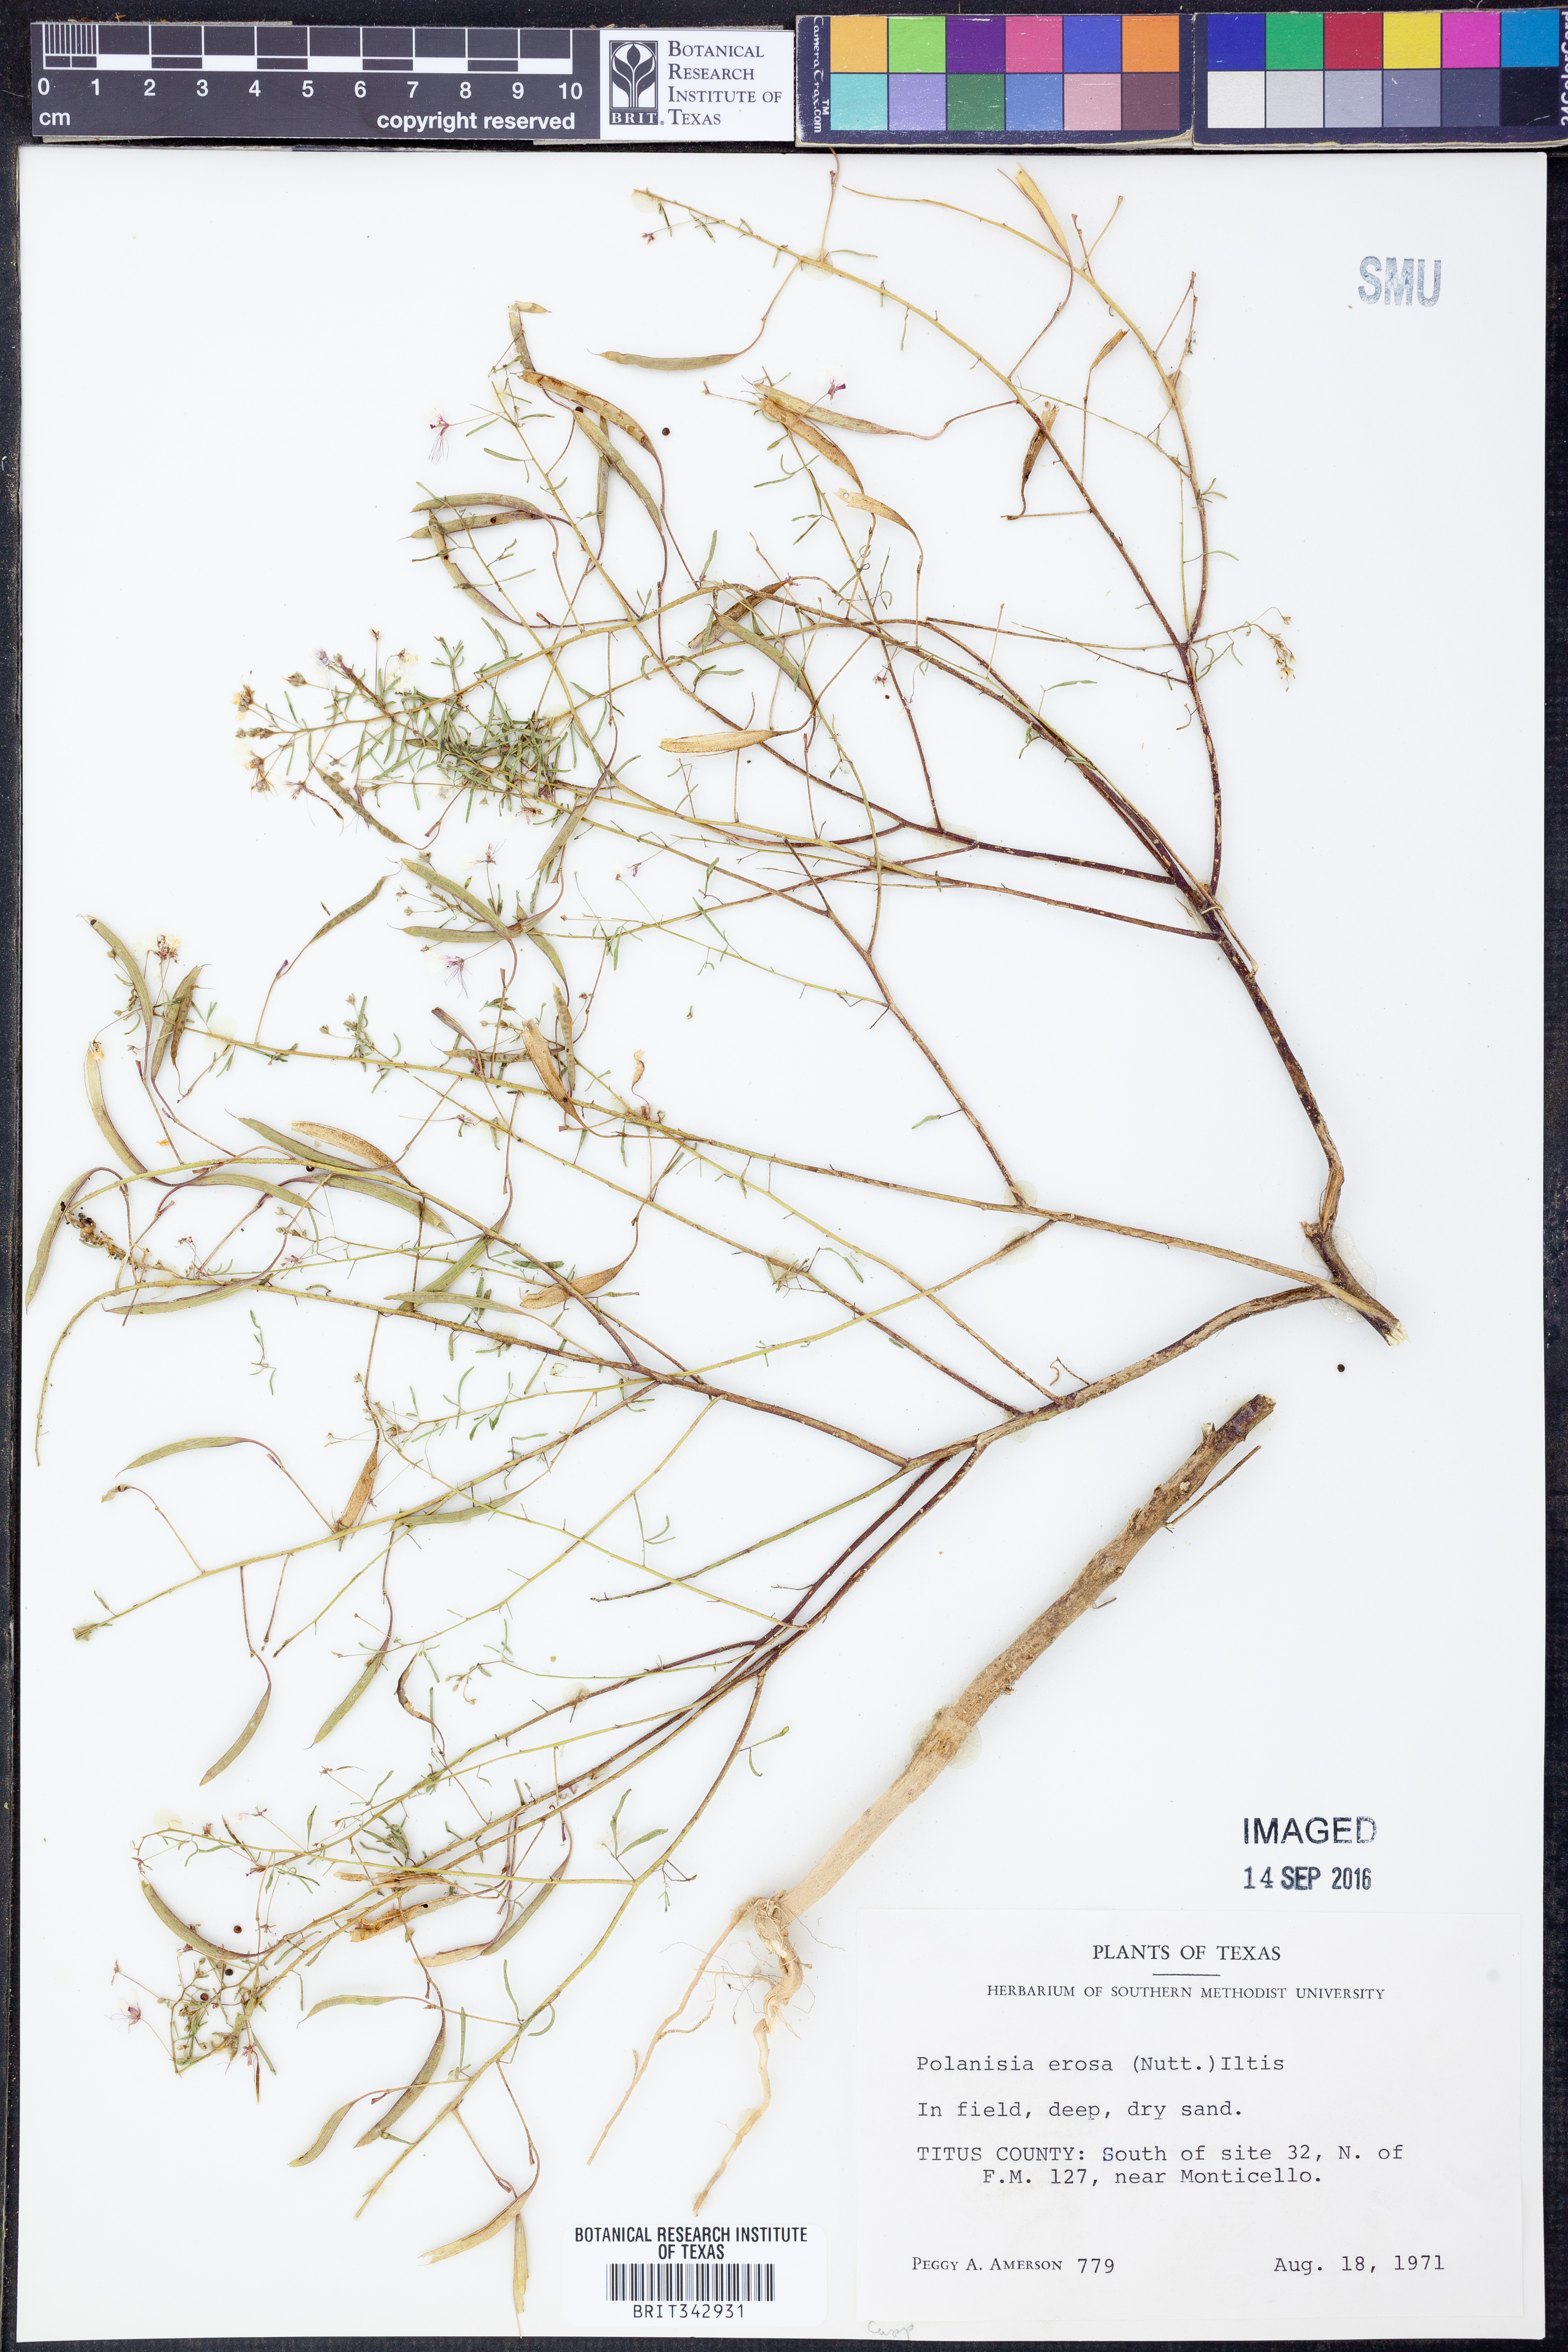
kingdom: Plantae
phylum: Tracheophyta
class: Magnoliopsida
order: Brassicales
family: Cleomaceae
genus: Polanisia
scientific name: Polanisia erosa
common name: Large clammyweed
